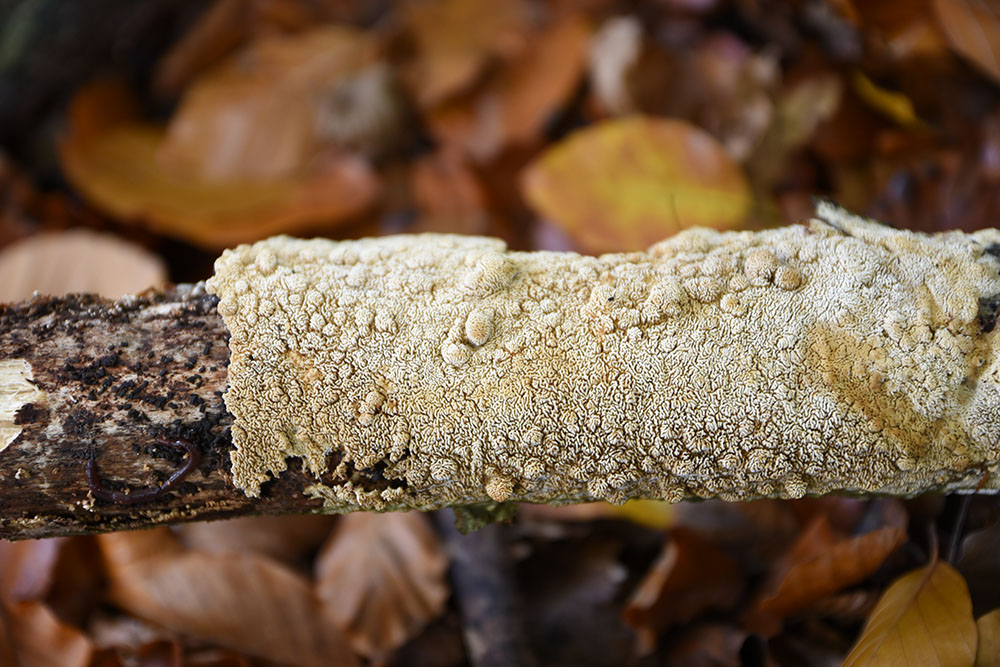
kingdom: Fungi
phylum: Basidiomycota
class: Agaricomycetes
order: Amylocorticiales
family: Amylocorticiaceae
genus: Ceraceomyces
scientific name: Ceraceomyces crispatus
